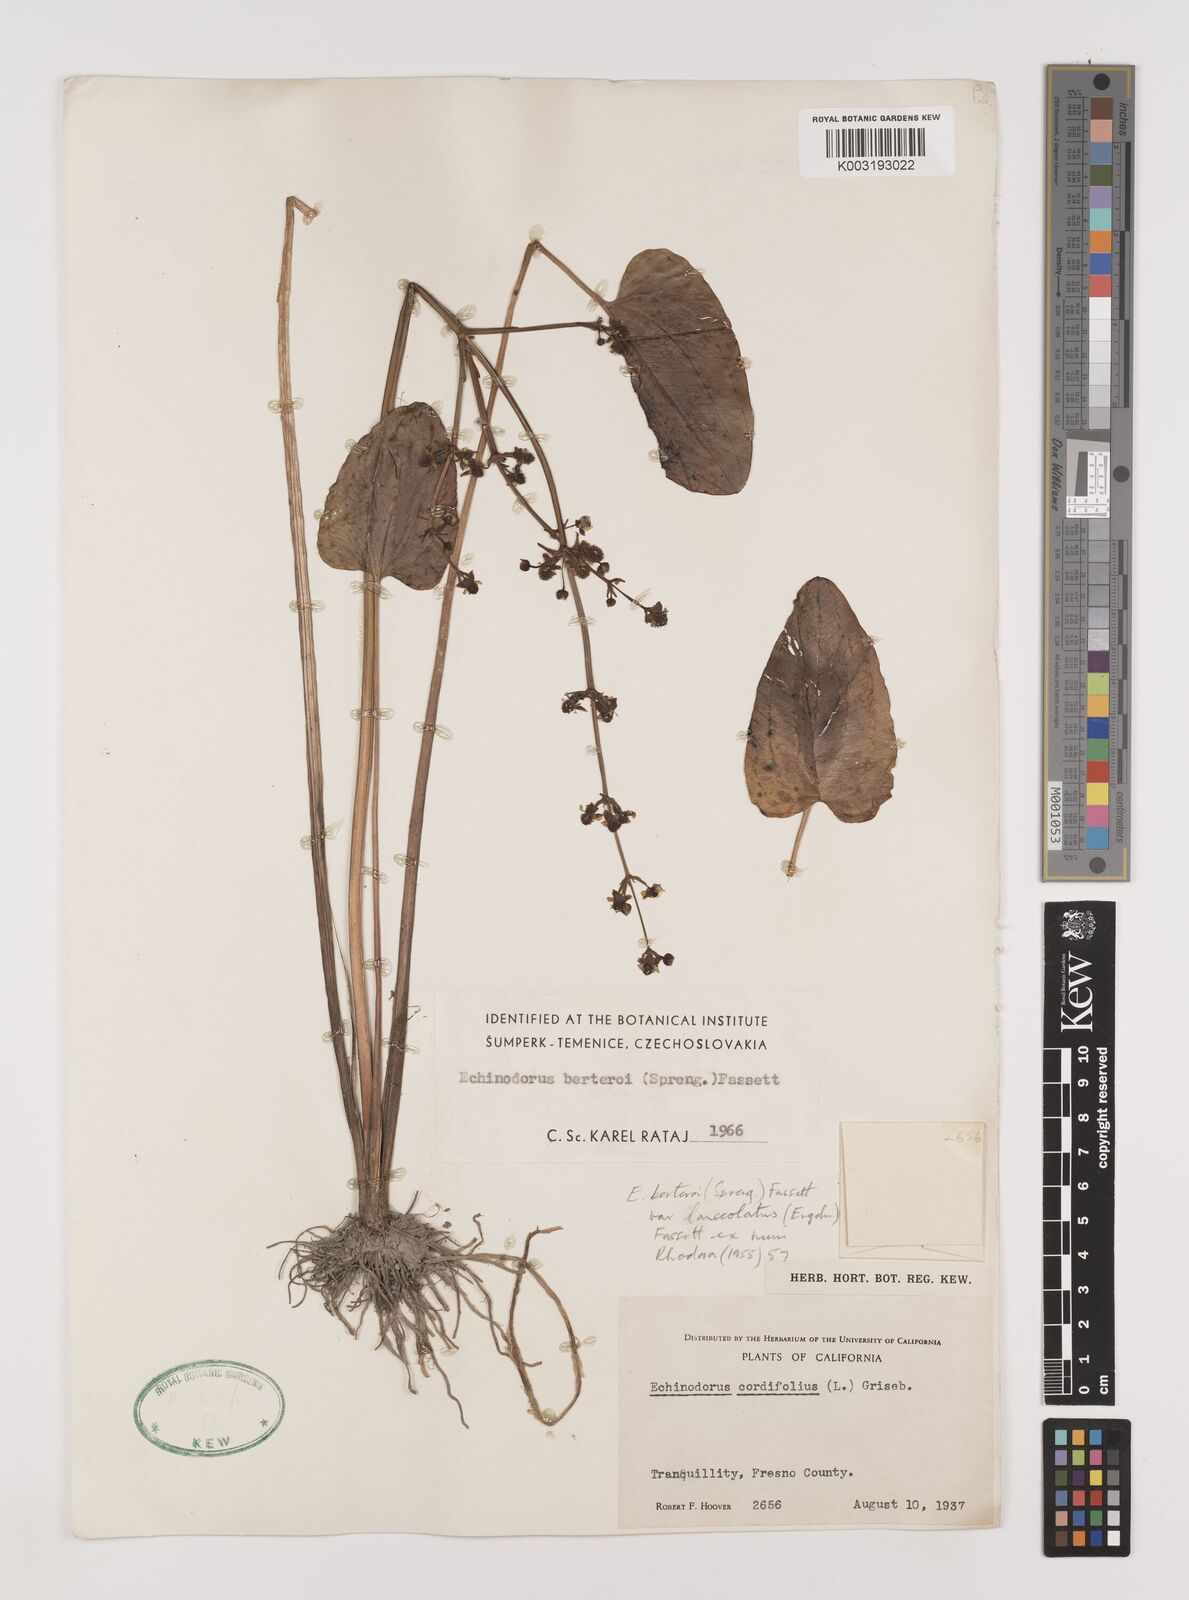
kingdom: Plantae
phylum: Tracheophyta
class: Liliopsida
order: Alismatales
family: Alismataceae
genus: Echinodorus
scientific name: Echinodorus berteroi
